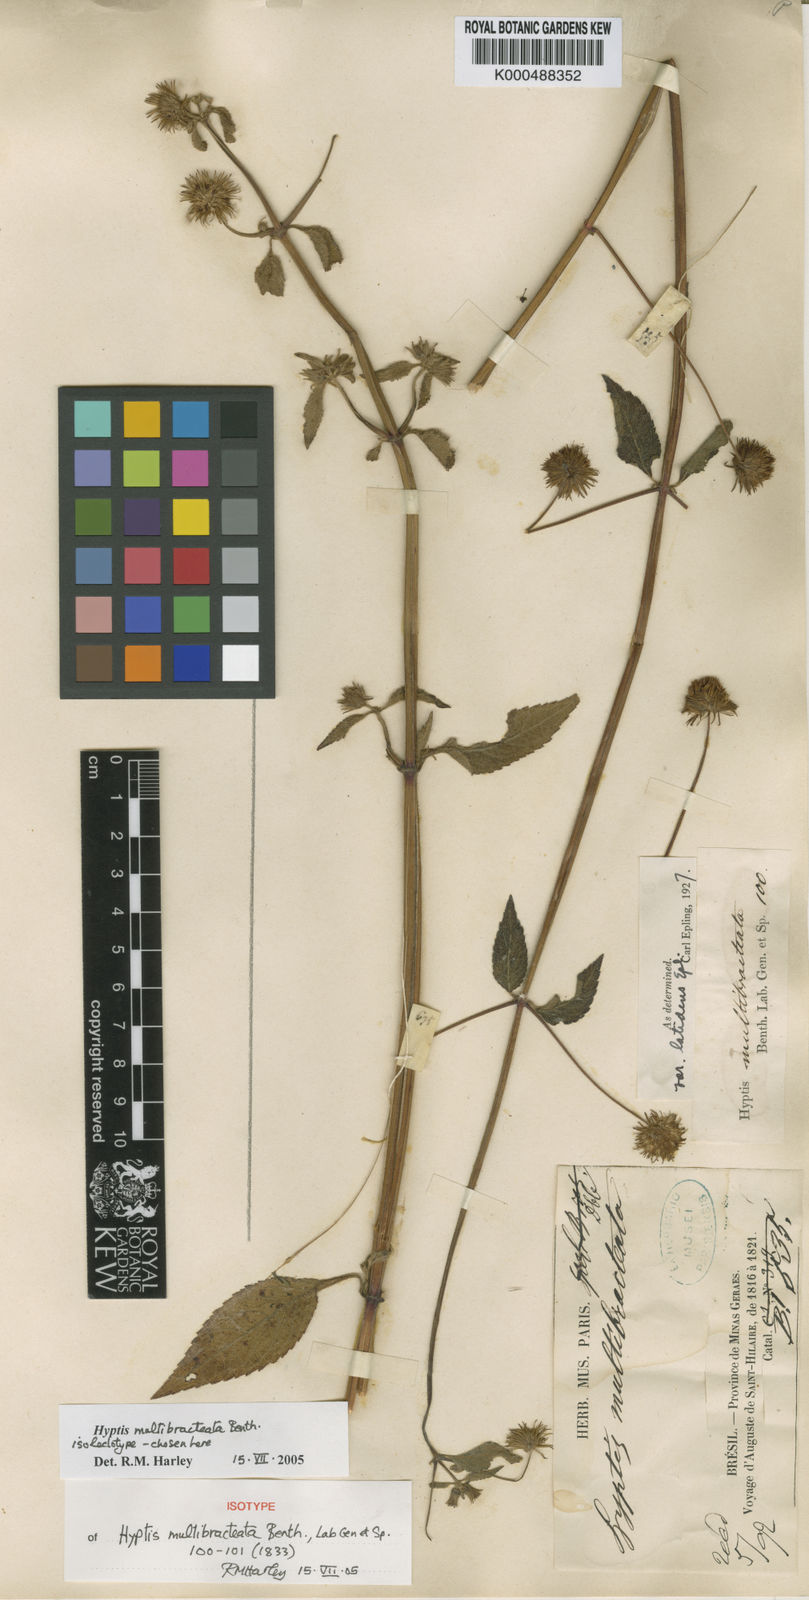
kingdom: Plantae
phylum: Tracheophyta
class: Magnoliopsida
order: Lamiales
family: Lamiaceae
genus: Hyptis
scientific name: Hyptis multibracteata
